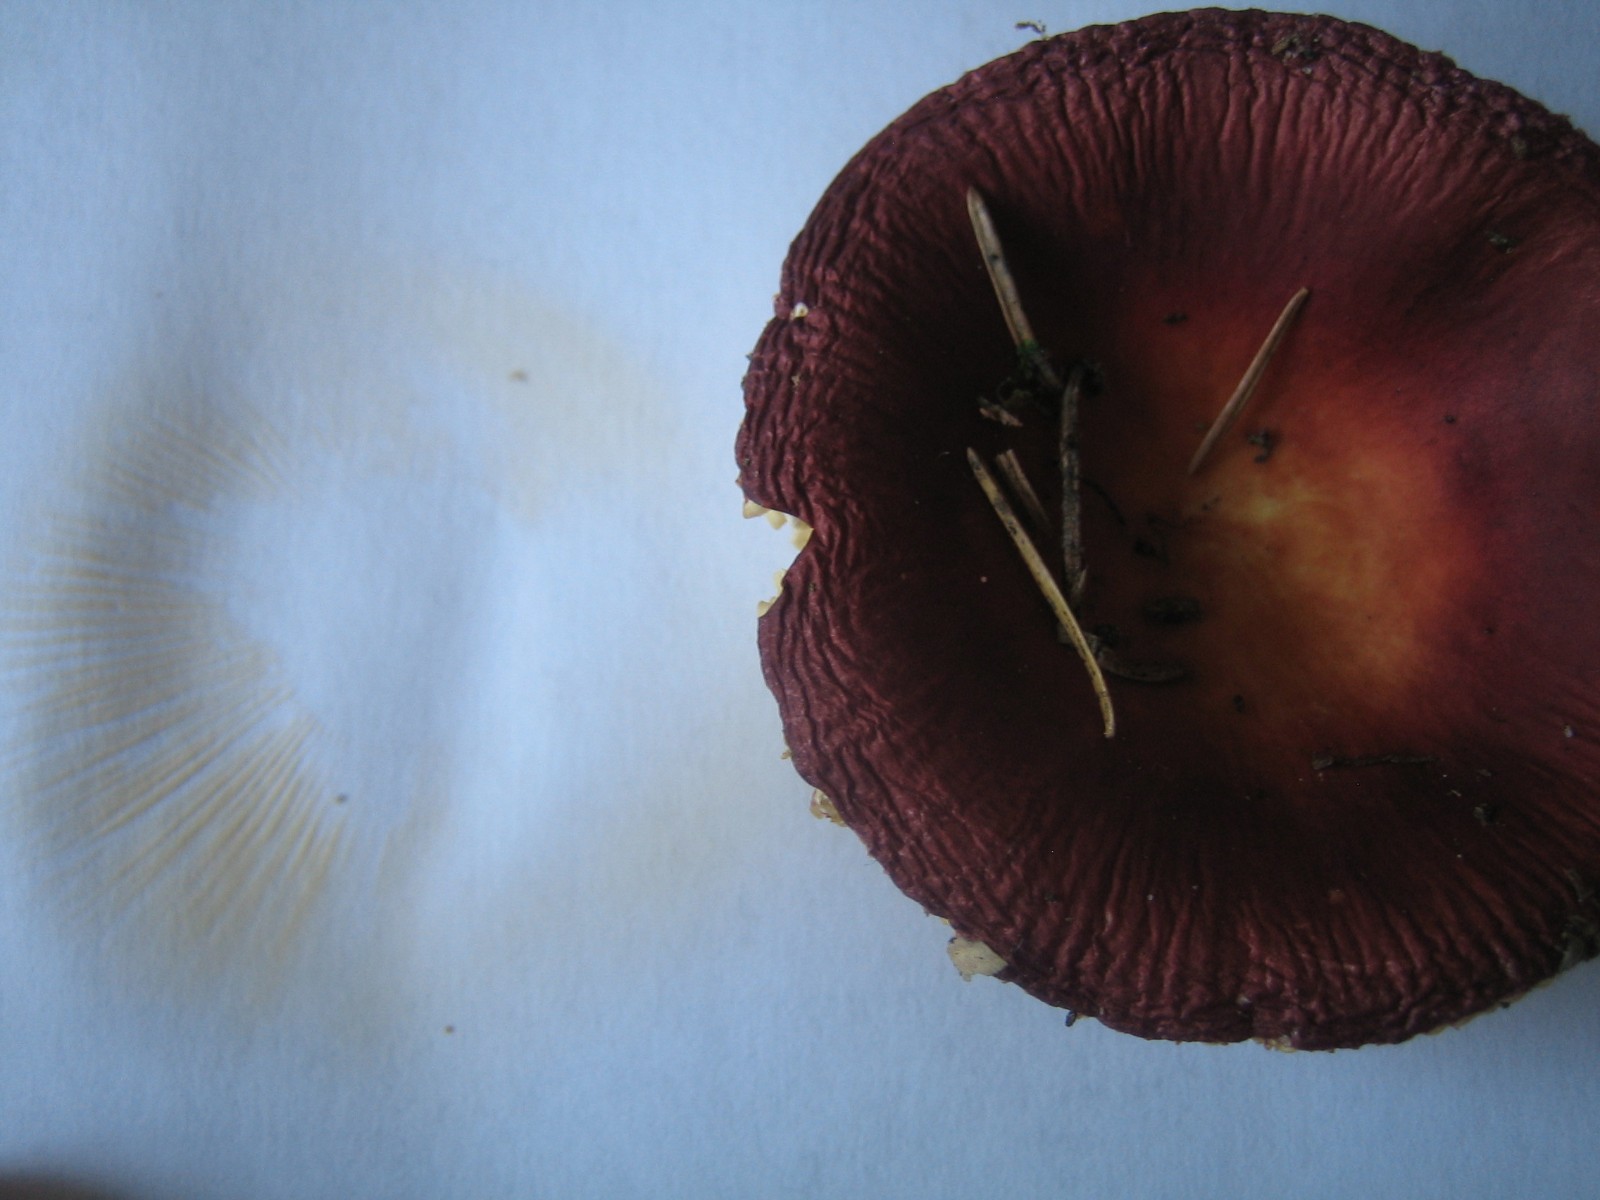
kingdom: Fungi
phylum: Basidiomycota
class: Agaricomycetes
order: Russulales
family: Russulaceae
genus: Russula
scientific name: Russula velenovskyi
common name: orangerød skørhat
